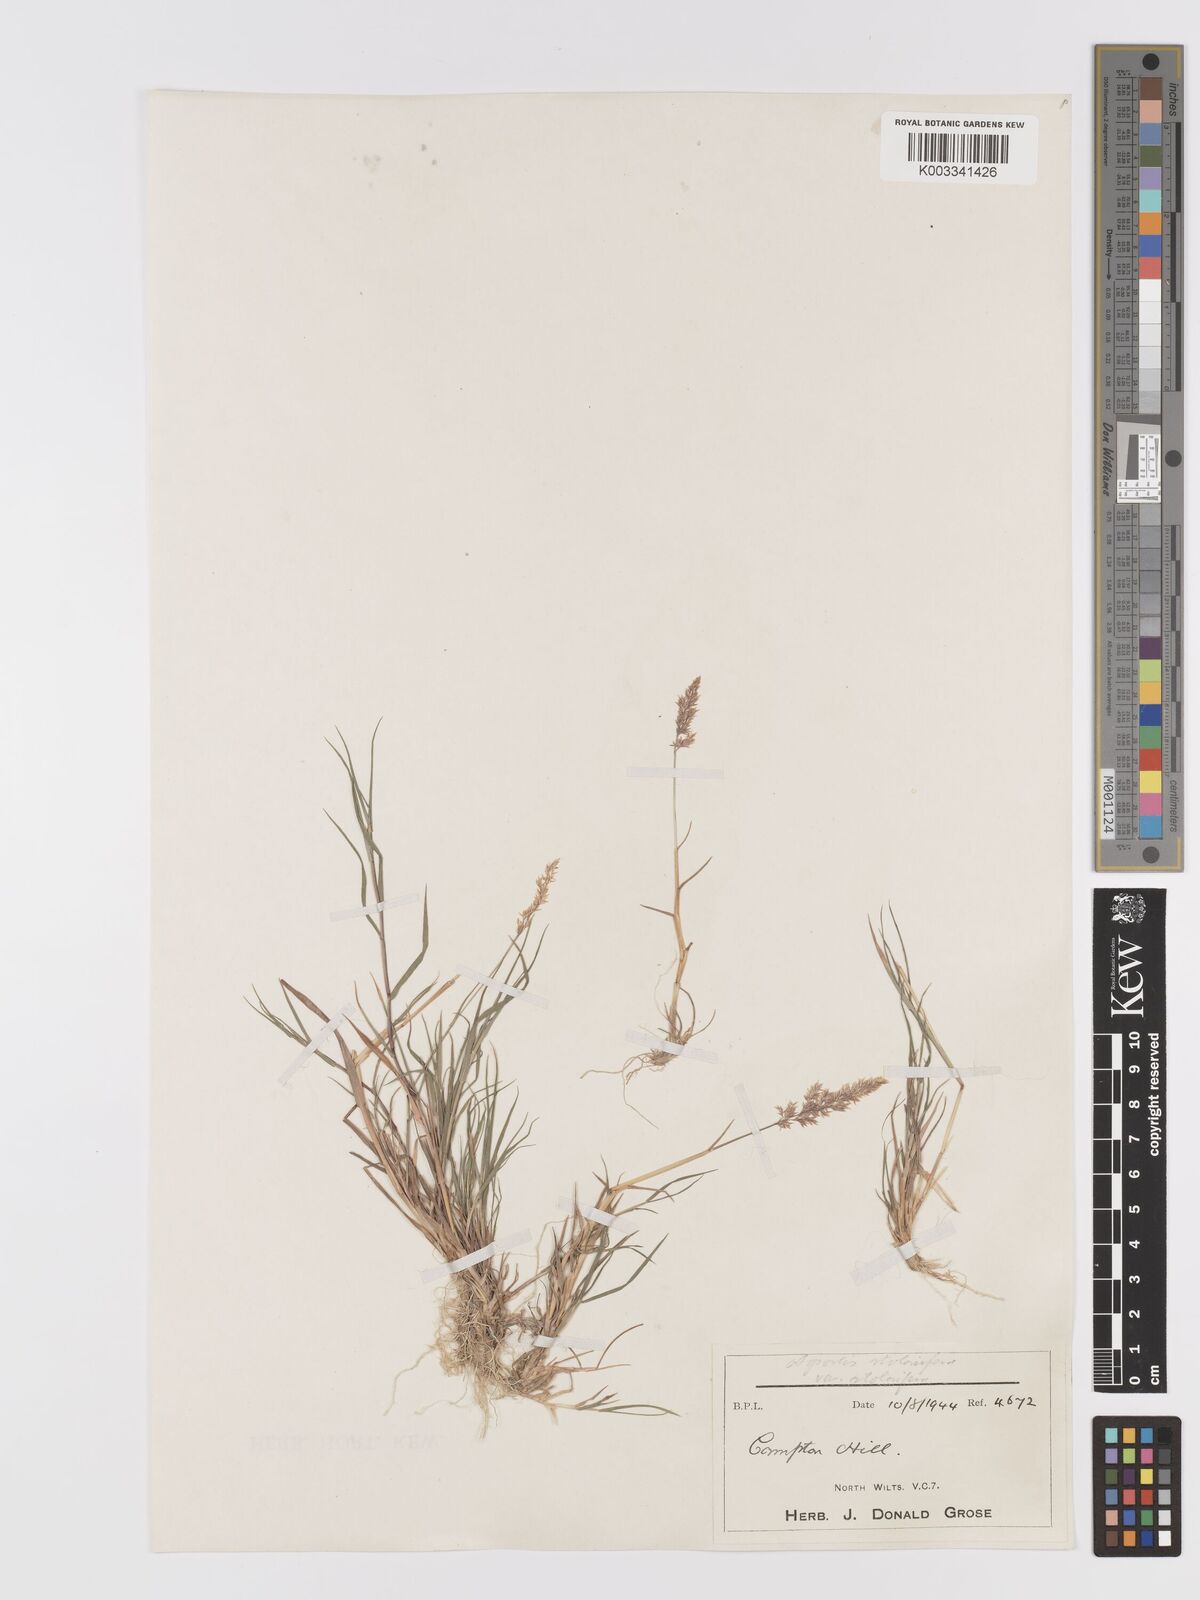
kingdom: Plantae
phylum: Tracheophyta
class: Liliopsida
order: Poales
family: Poaceae
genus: Agrostis
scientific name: Agrostis stolonifera
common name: Creeping bentgrass
